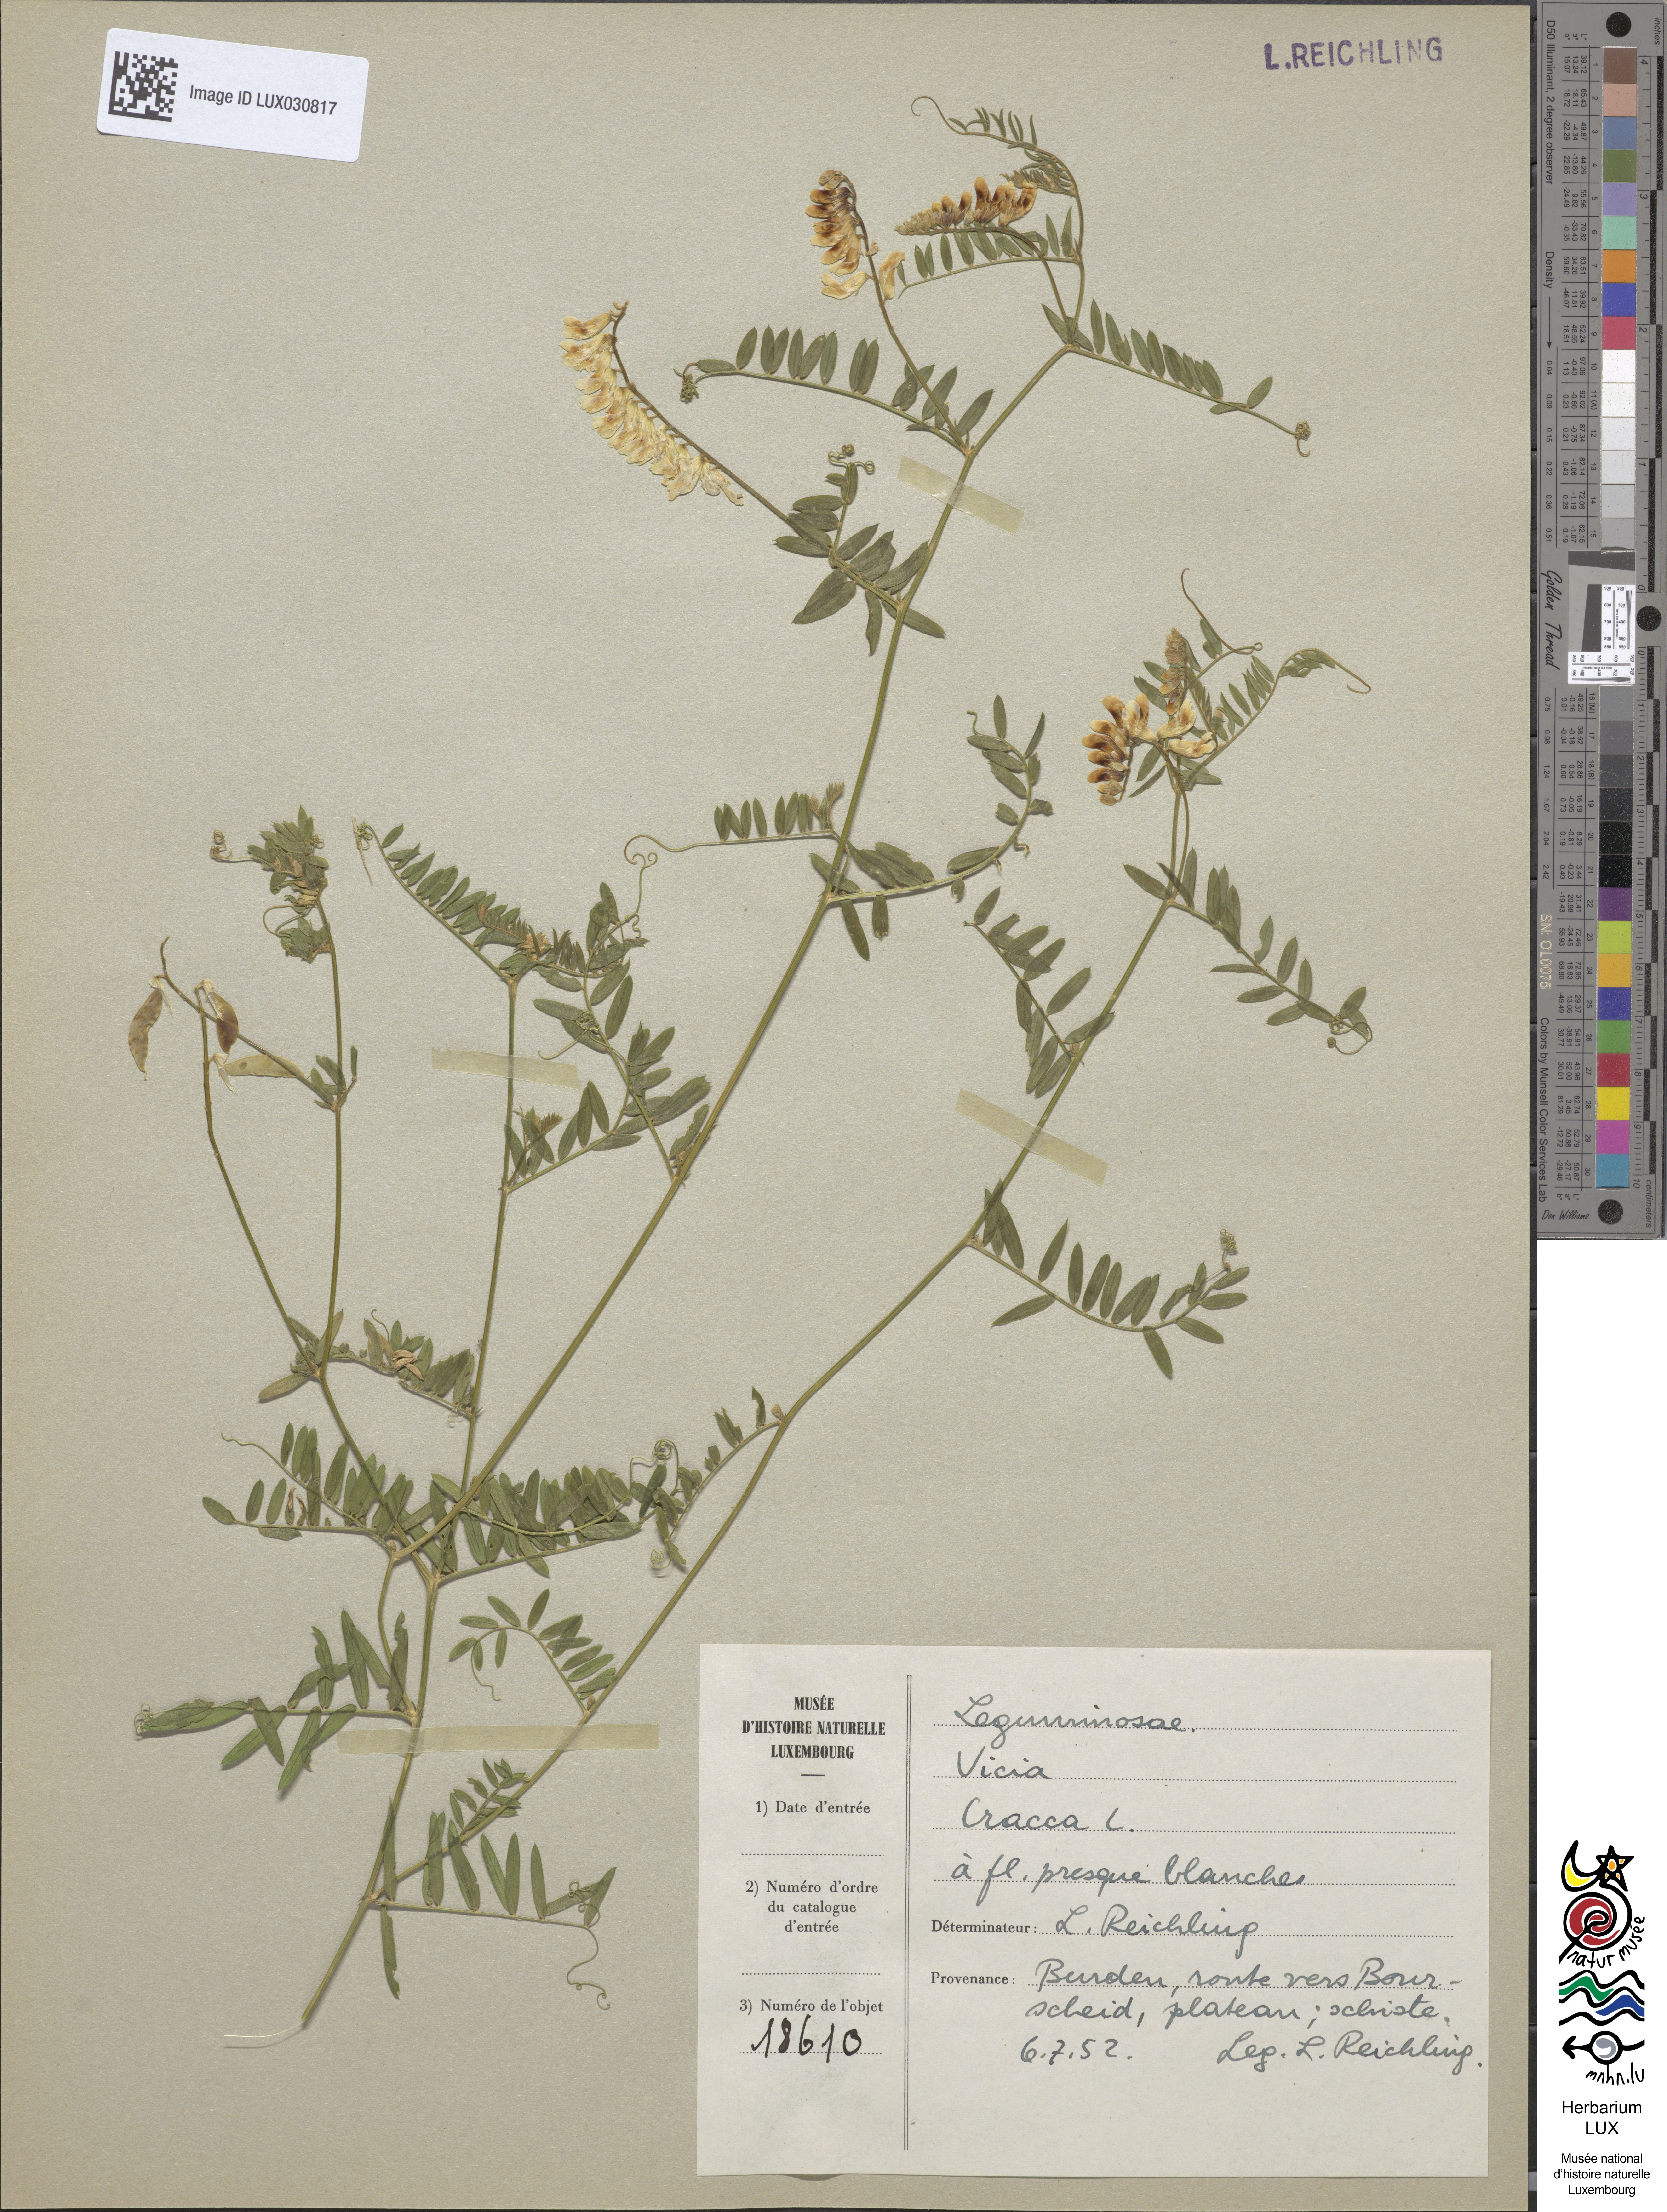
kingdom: Plantae
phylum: Tracheophyta
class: Magnoliopsida
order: Fabales
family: Fabaceae
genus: Vicia
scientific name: Vicia cracca
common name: Bird vetch
